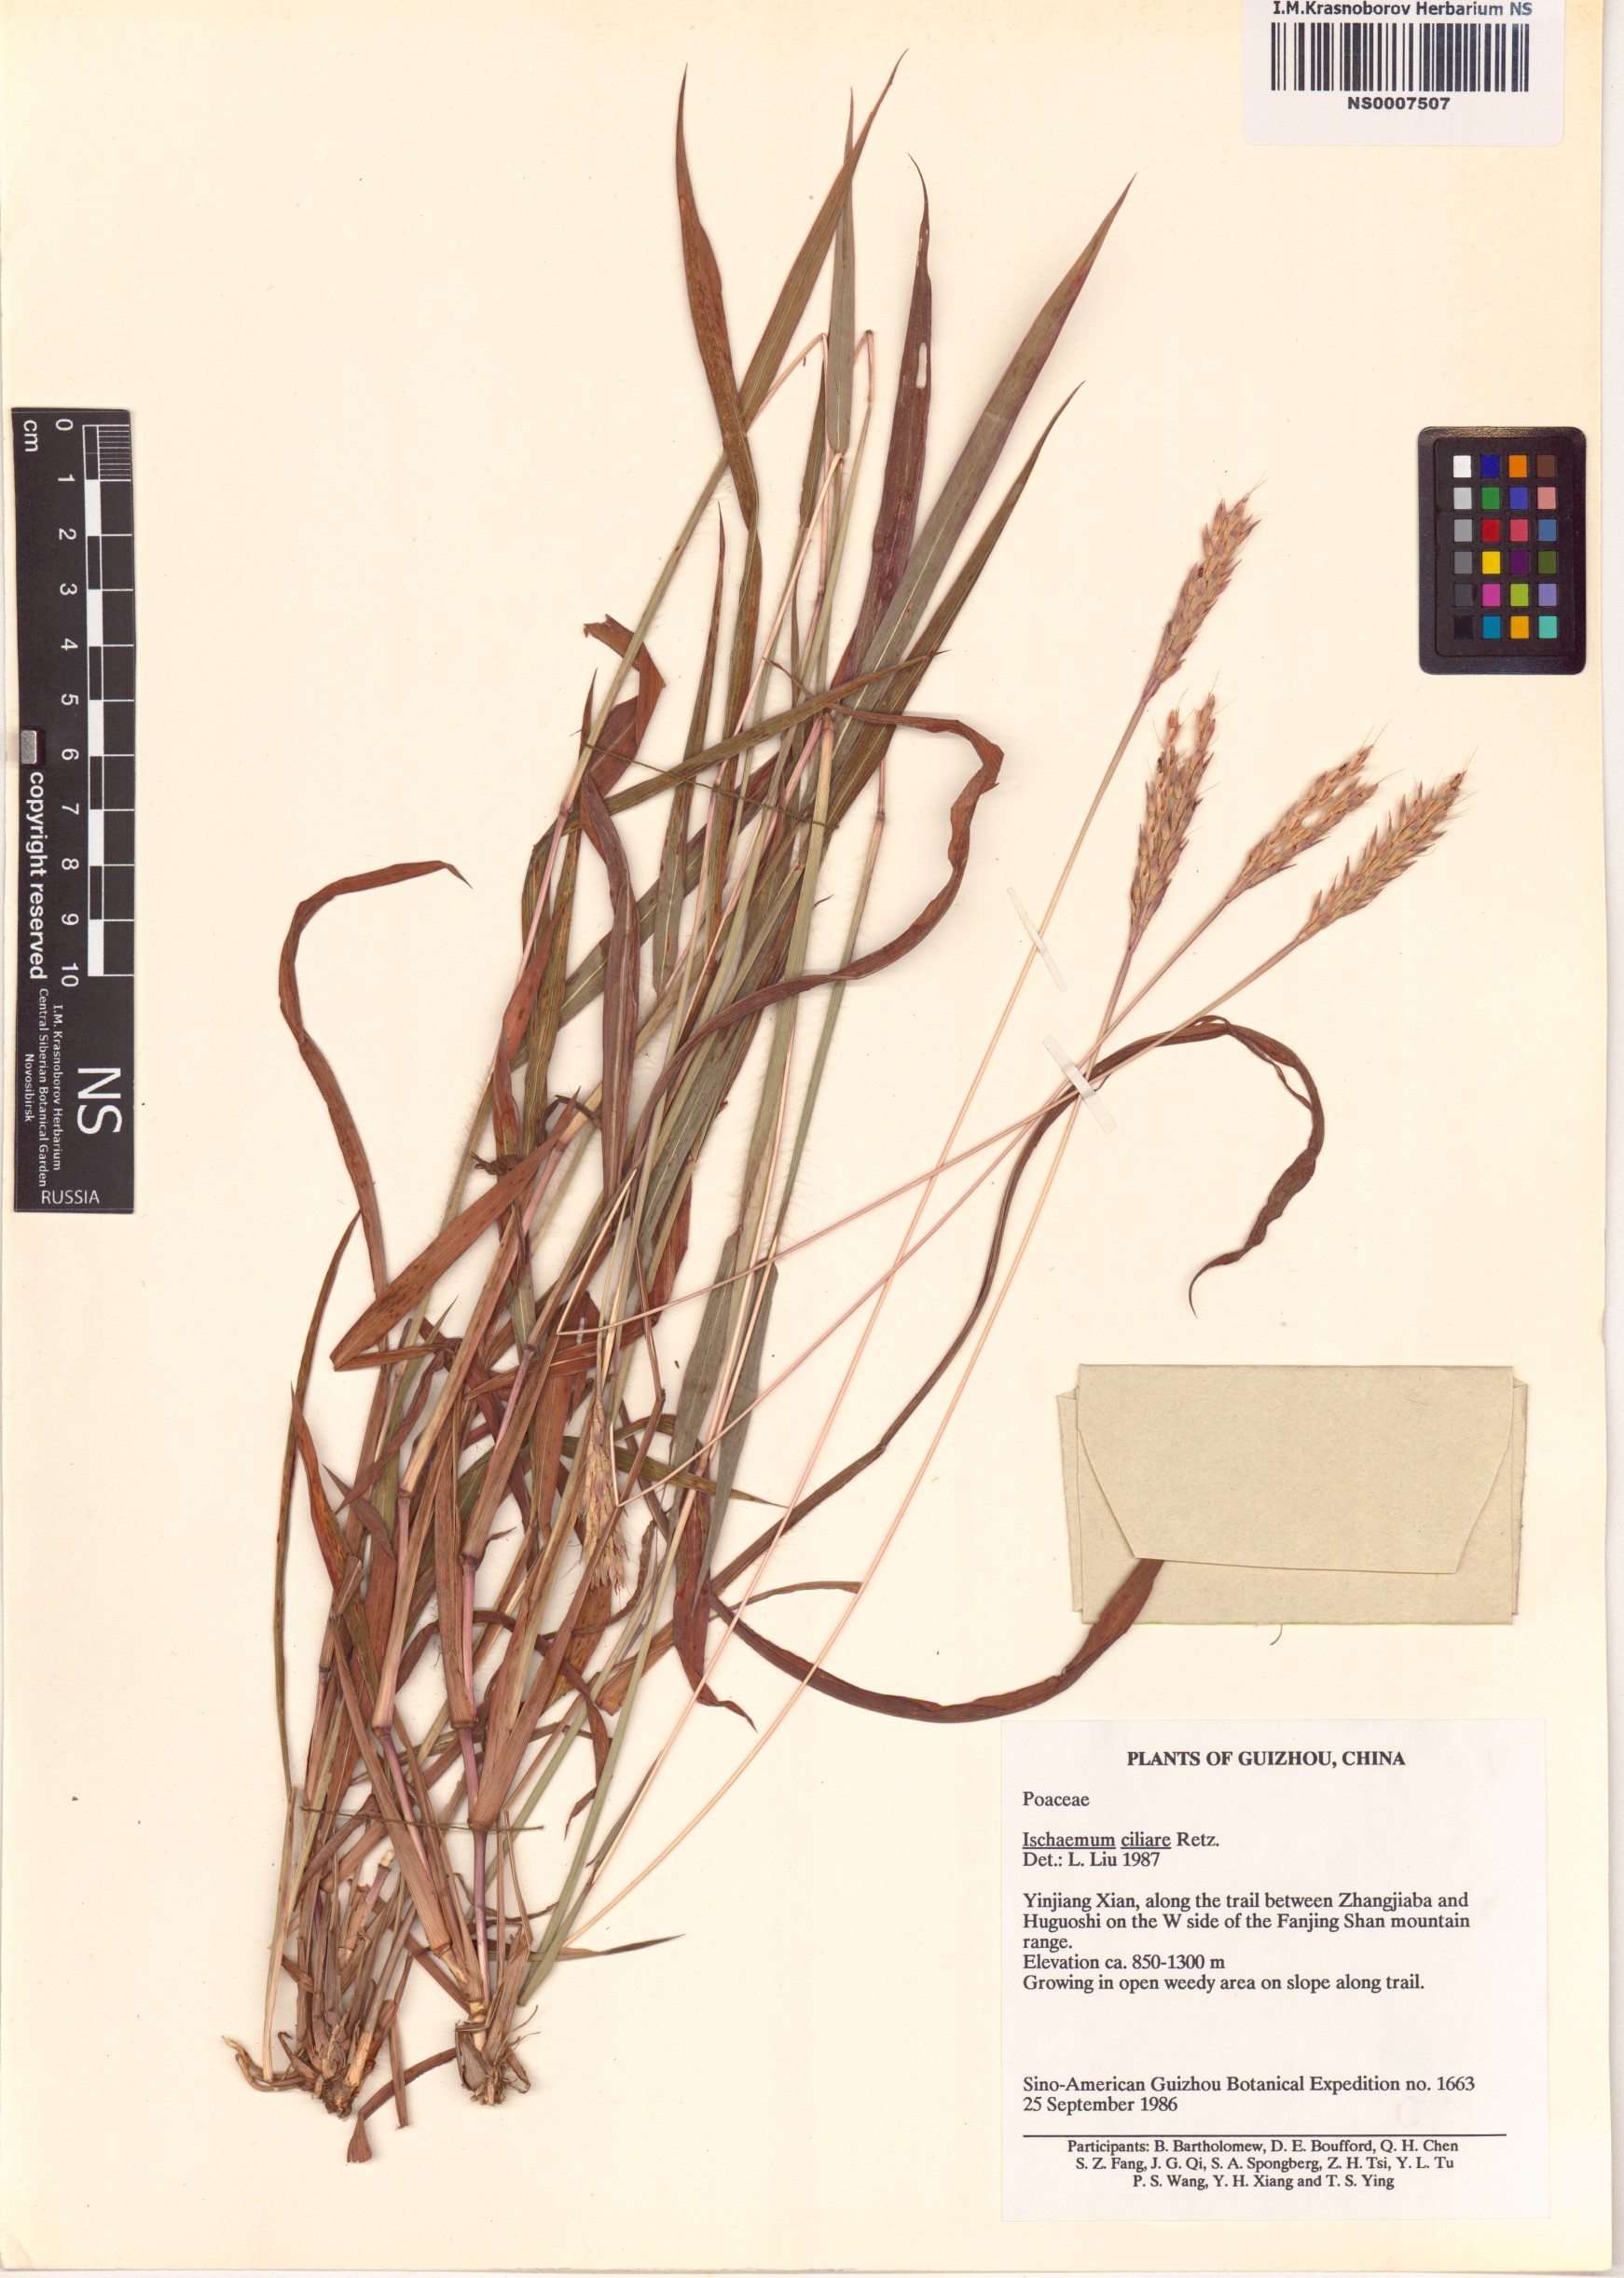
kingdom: Plantae
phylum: Tracheophyta
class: Liliopsida
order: Poales
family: Poaceae
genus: Ischaemum
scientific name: Ischaemum ciliare
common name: Grass
